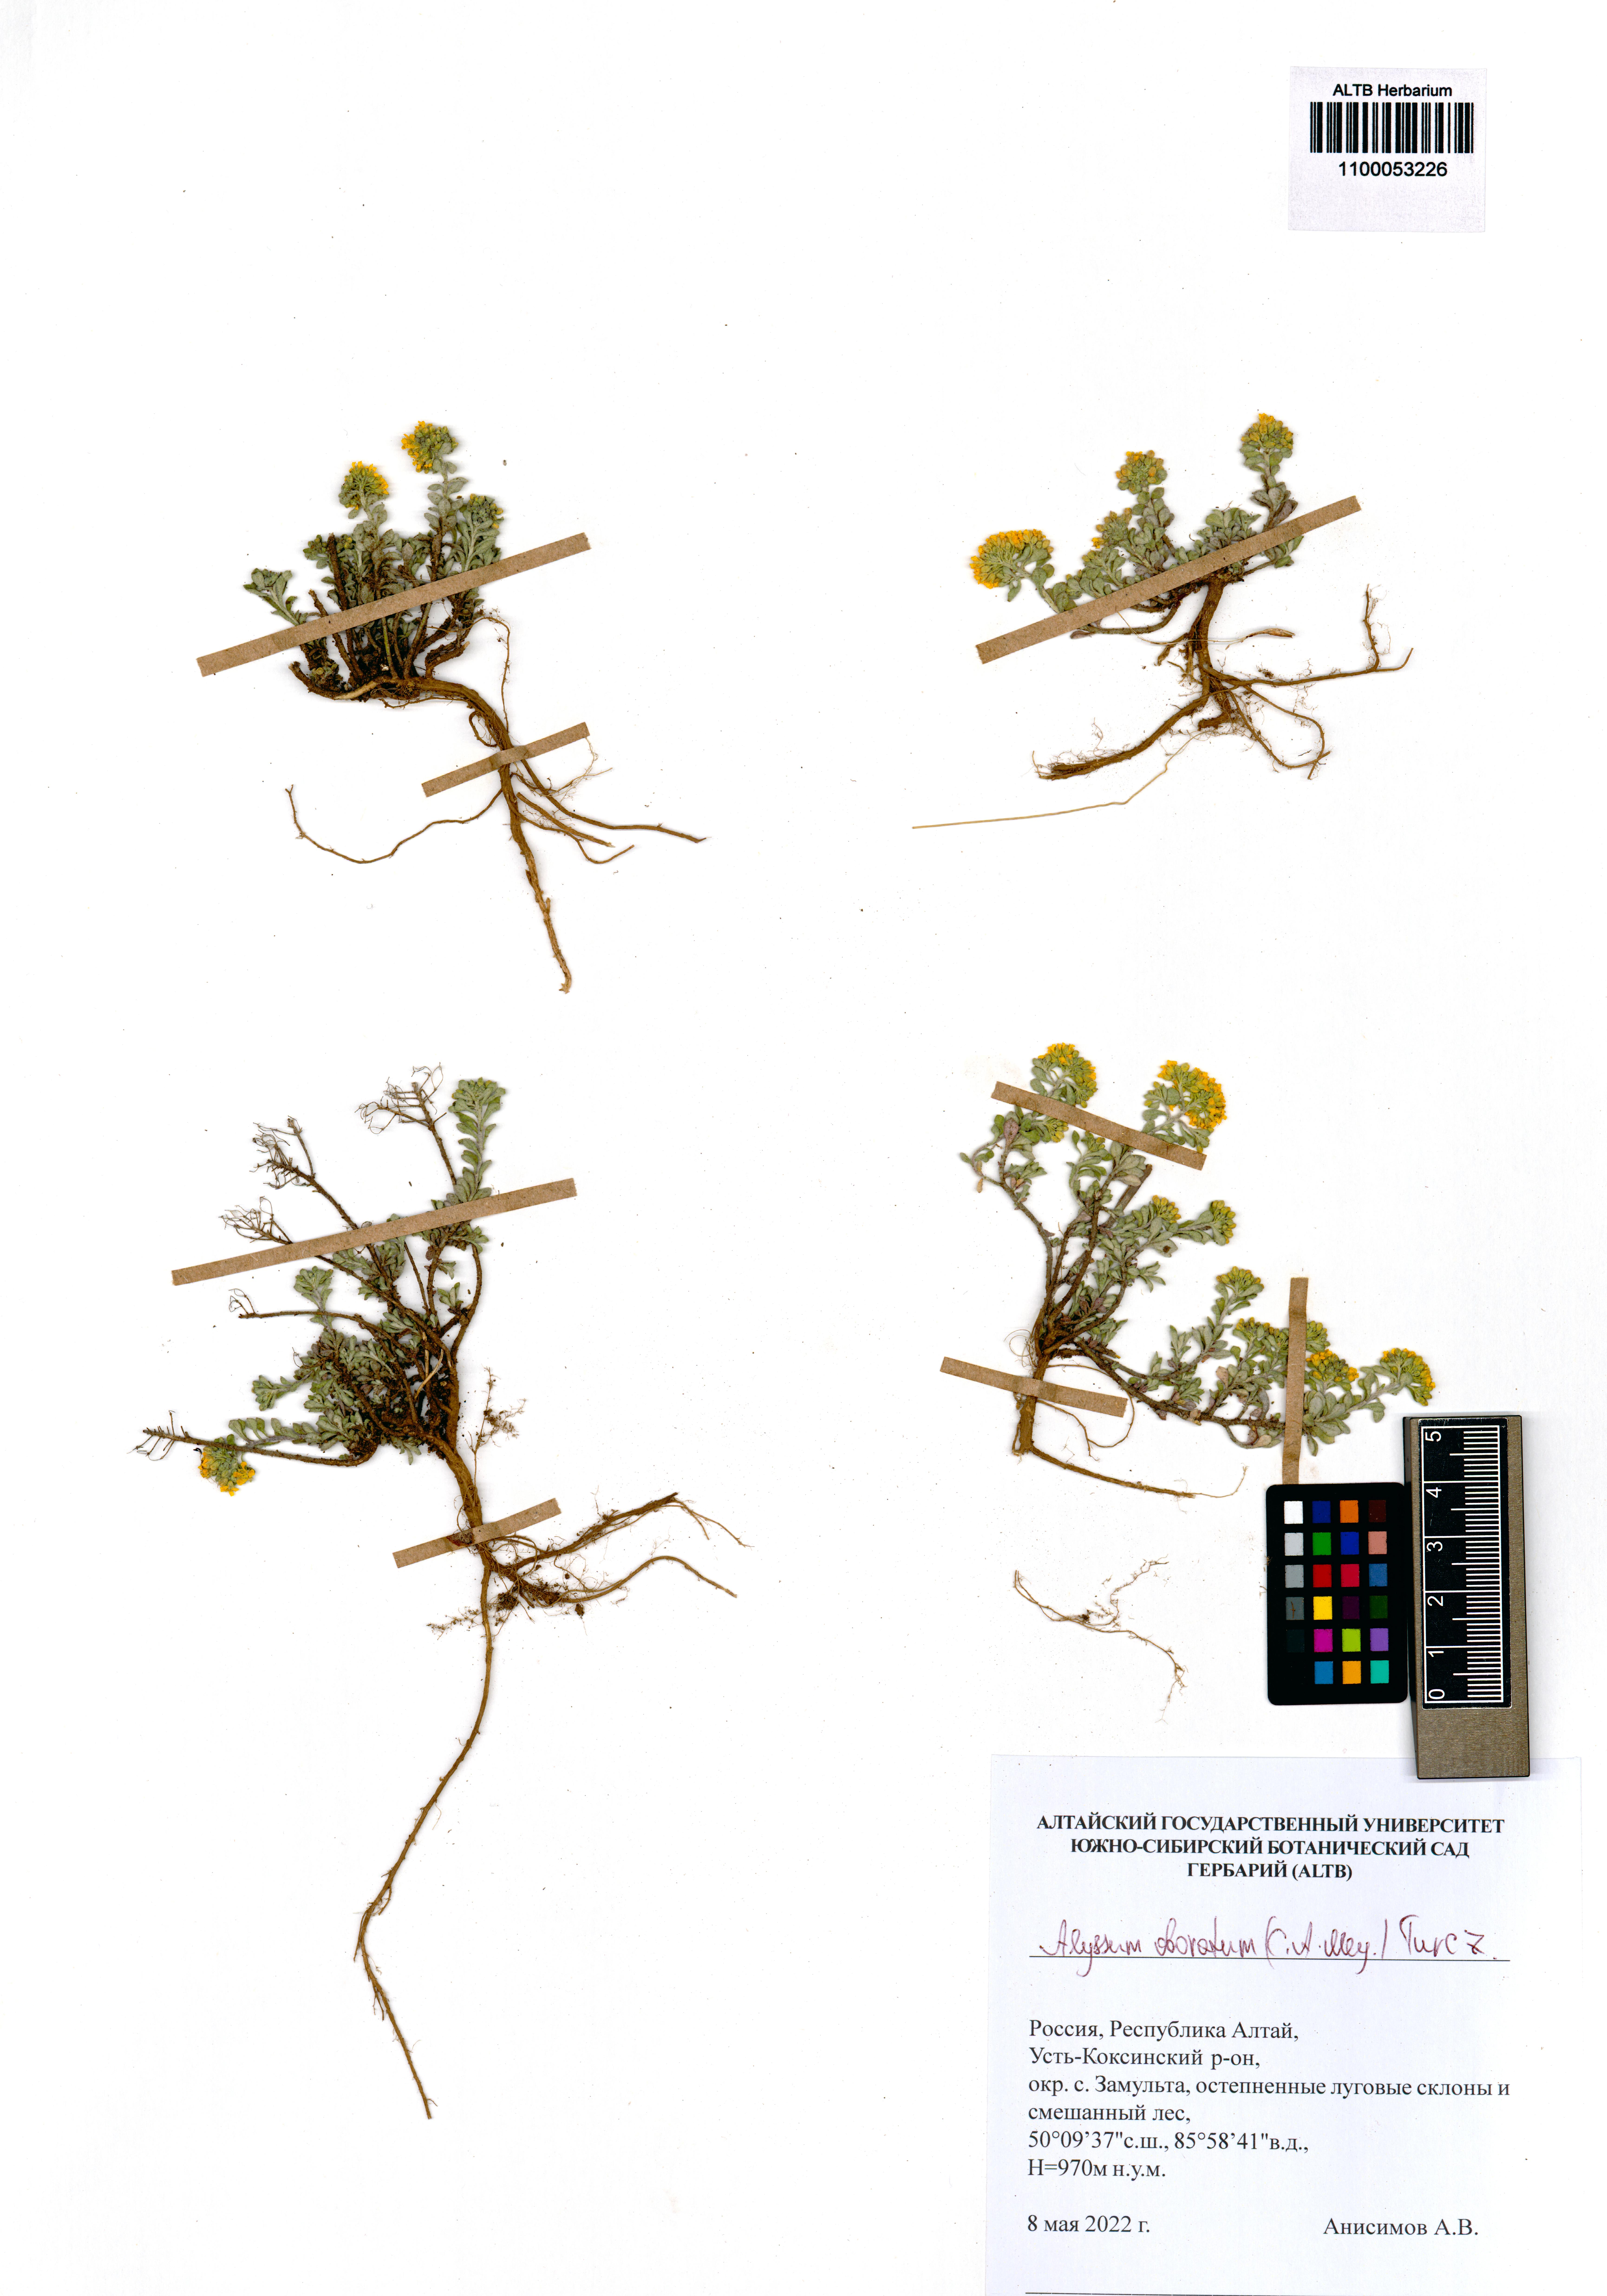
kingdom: Plantae
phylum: Tracheophyta
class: Magnoliopsida
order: Brassicales
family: Brassicaceae
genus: Odontarrhena
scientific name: Odontarrhena obovata
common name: American alyssum
